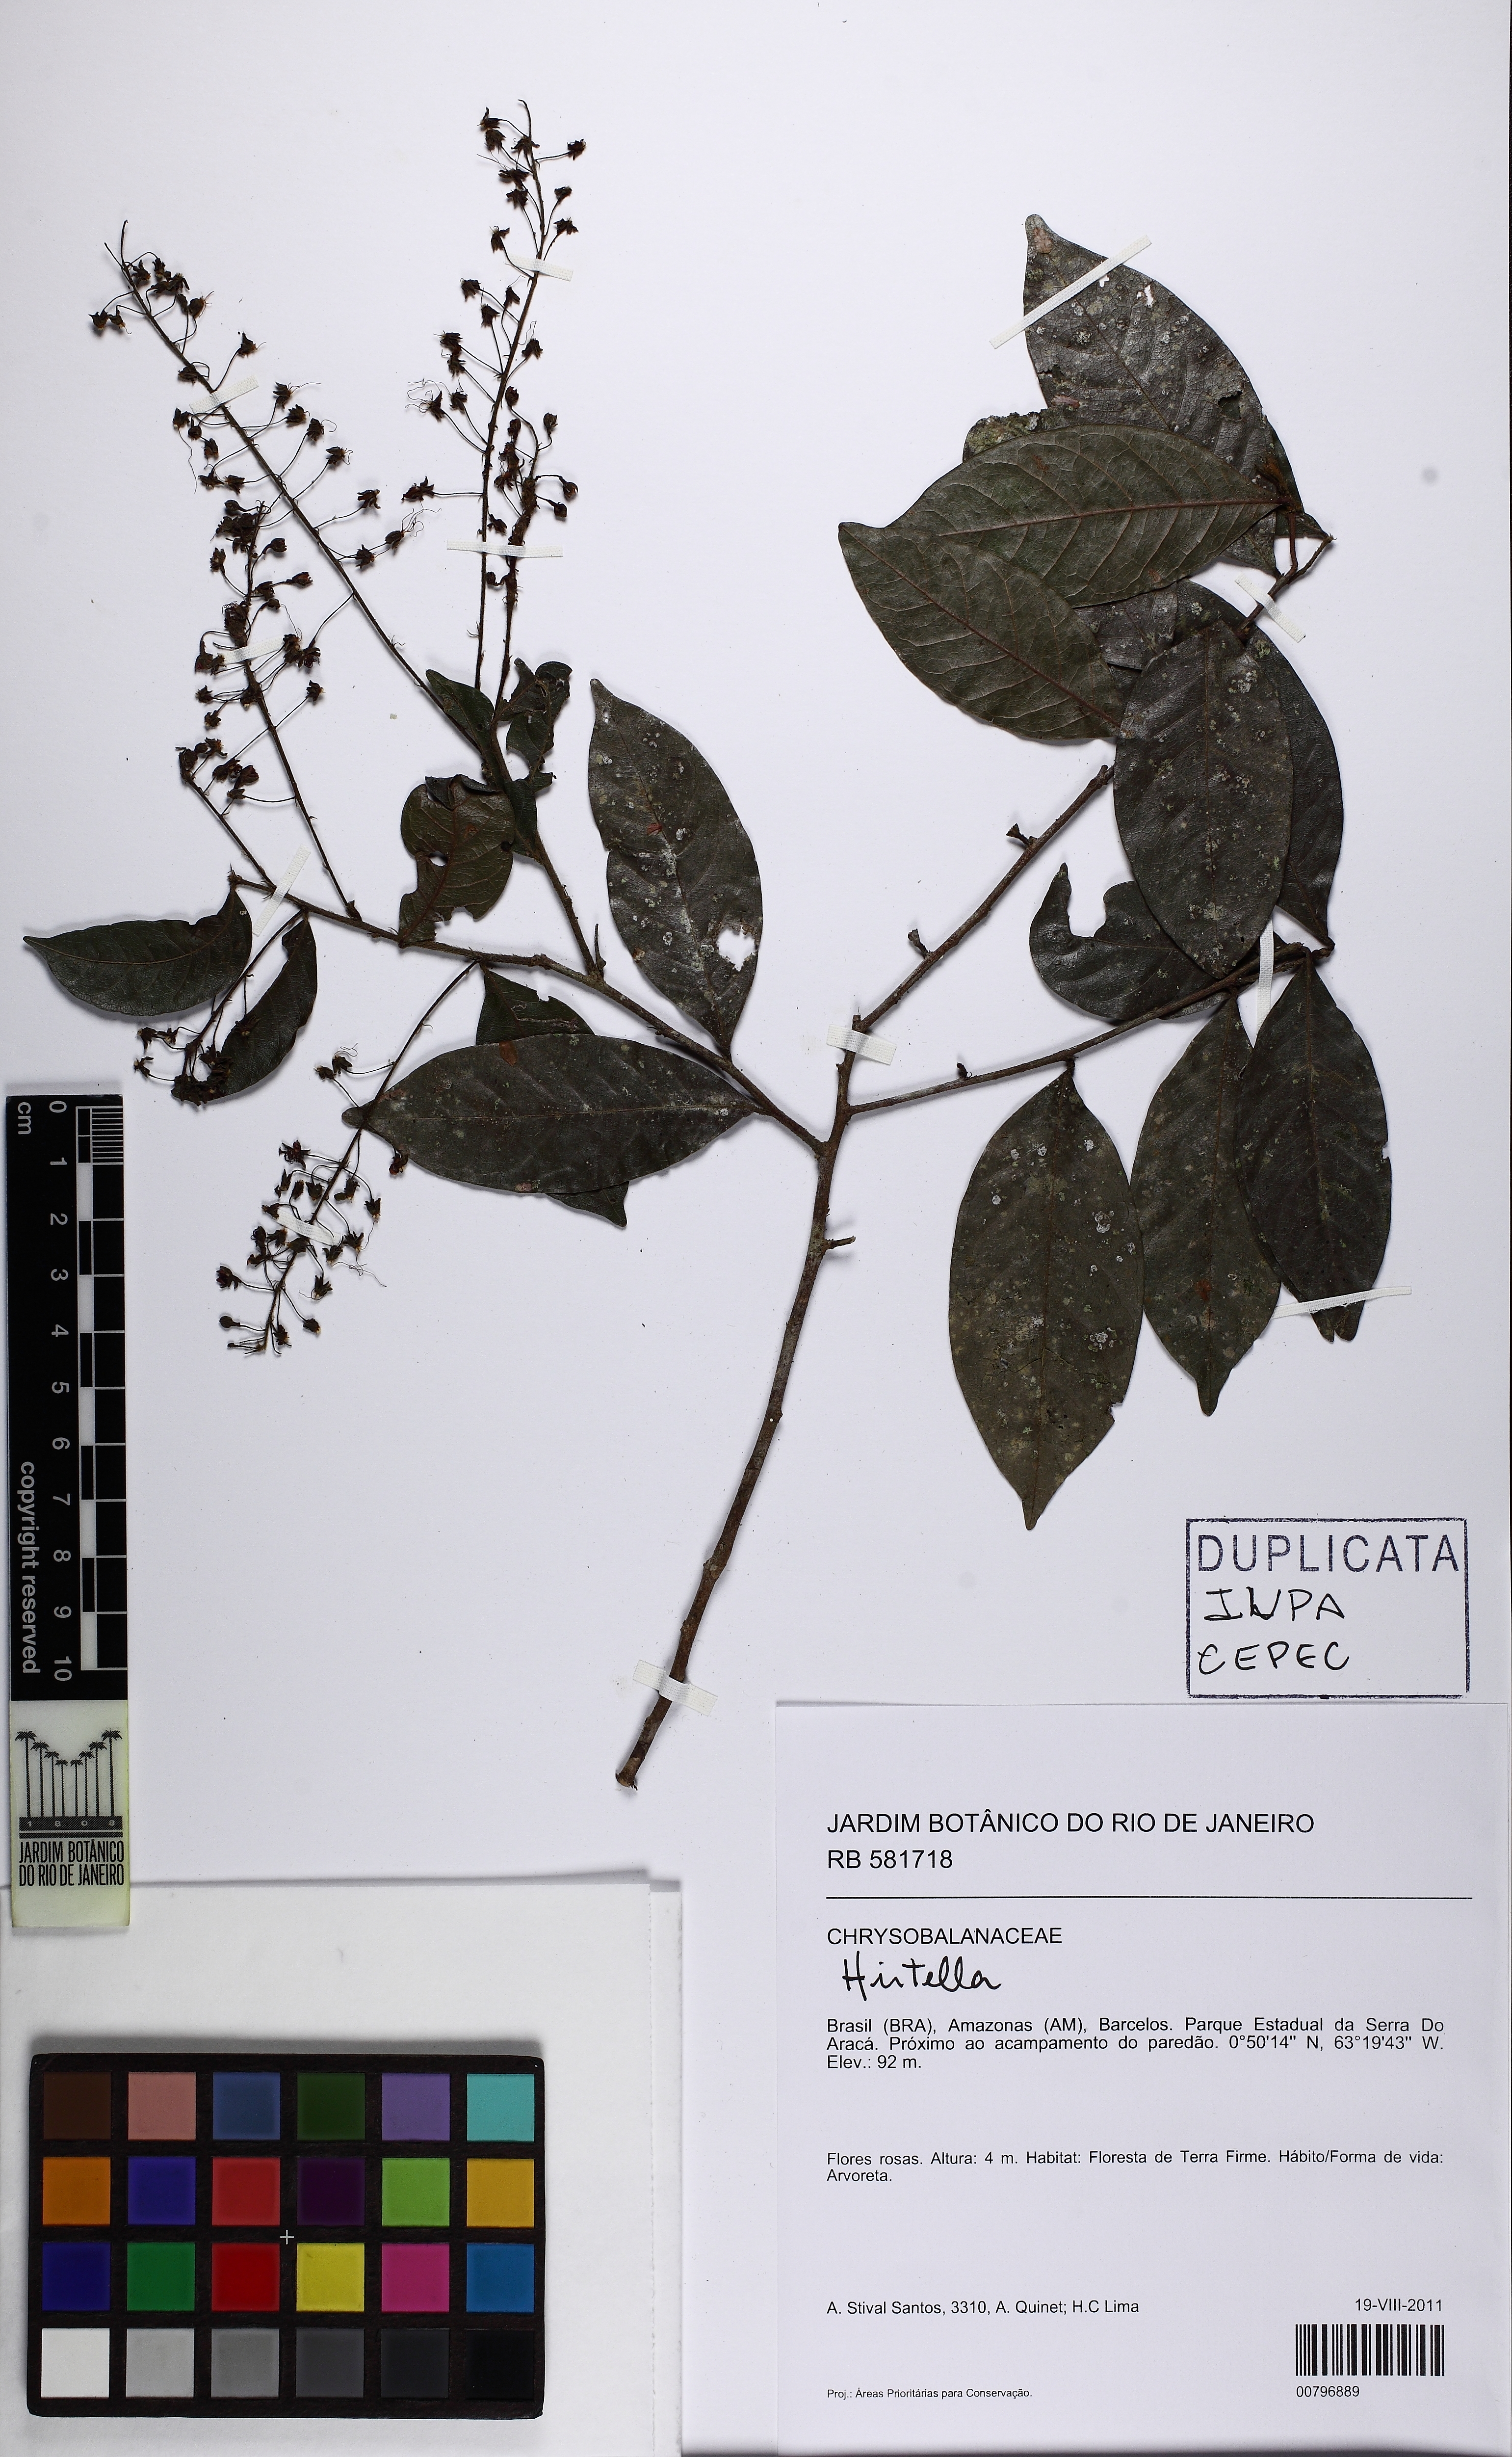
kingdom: Plantae
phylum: Tracheophyta
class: Magnoliopsida
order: Malpighiales
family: Chrysobalanaceae
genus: Hirtella
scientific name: Hirtella
